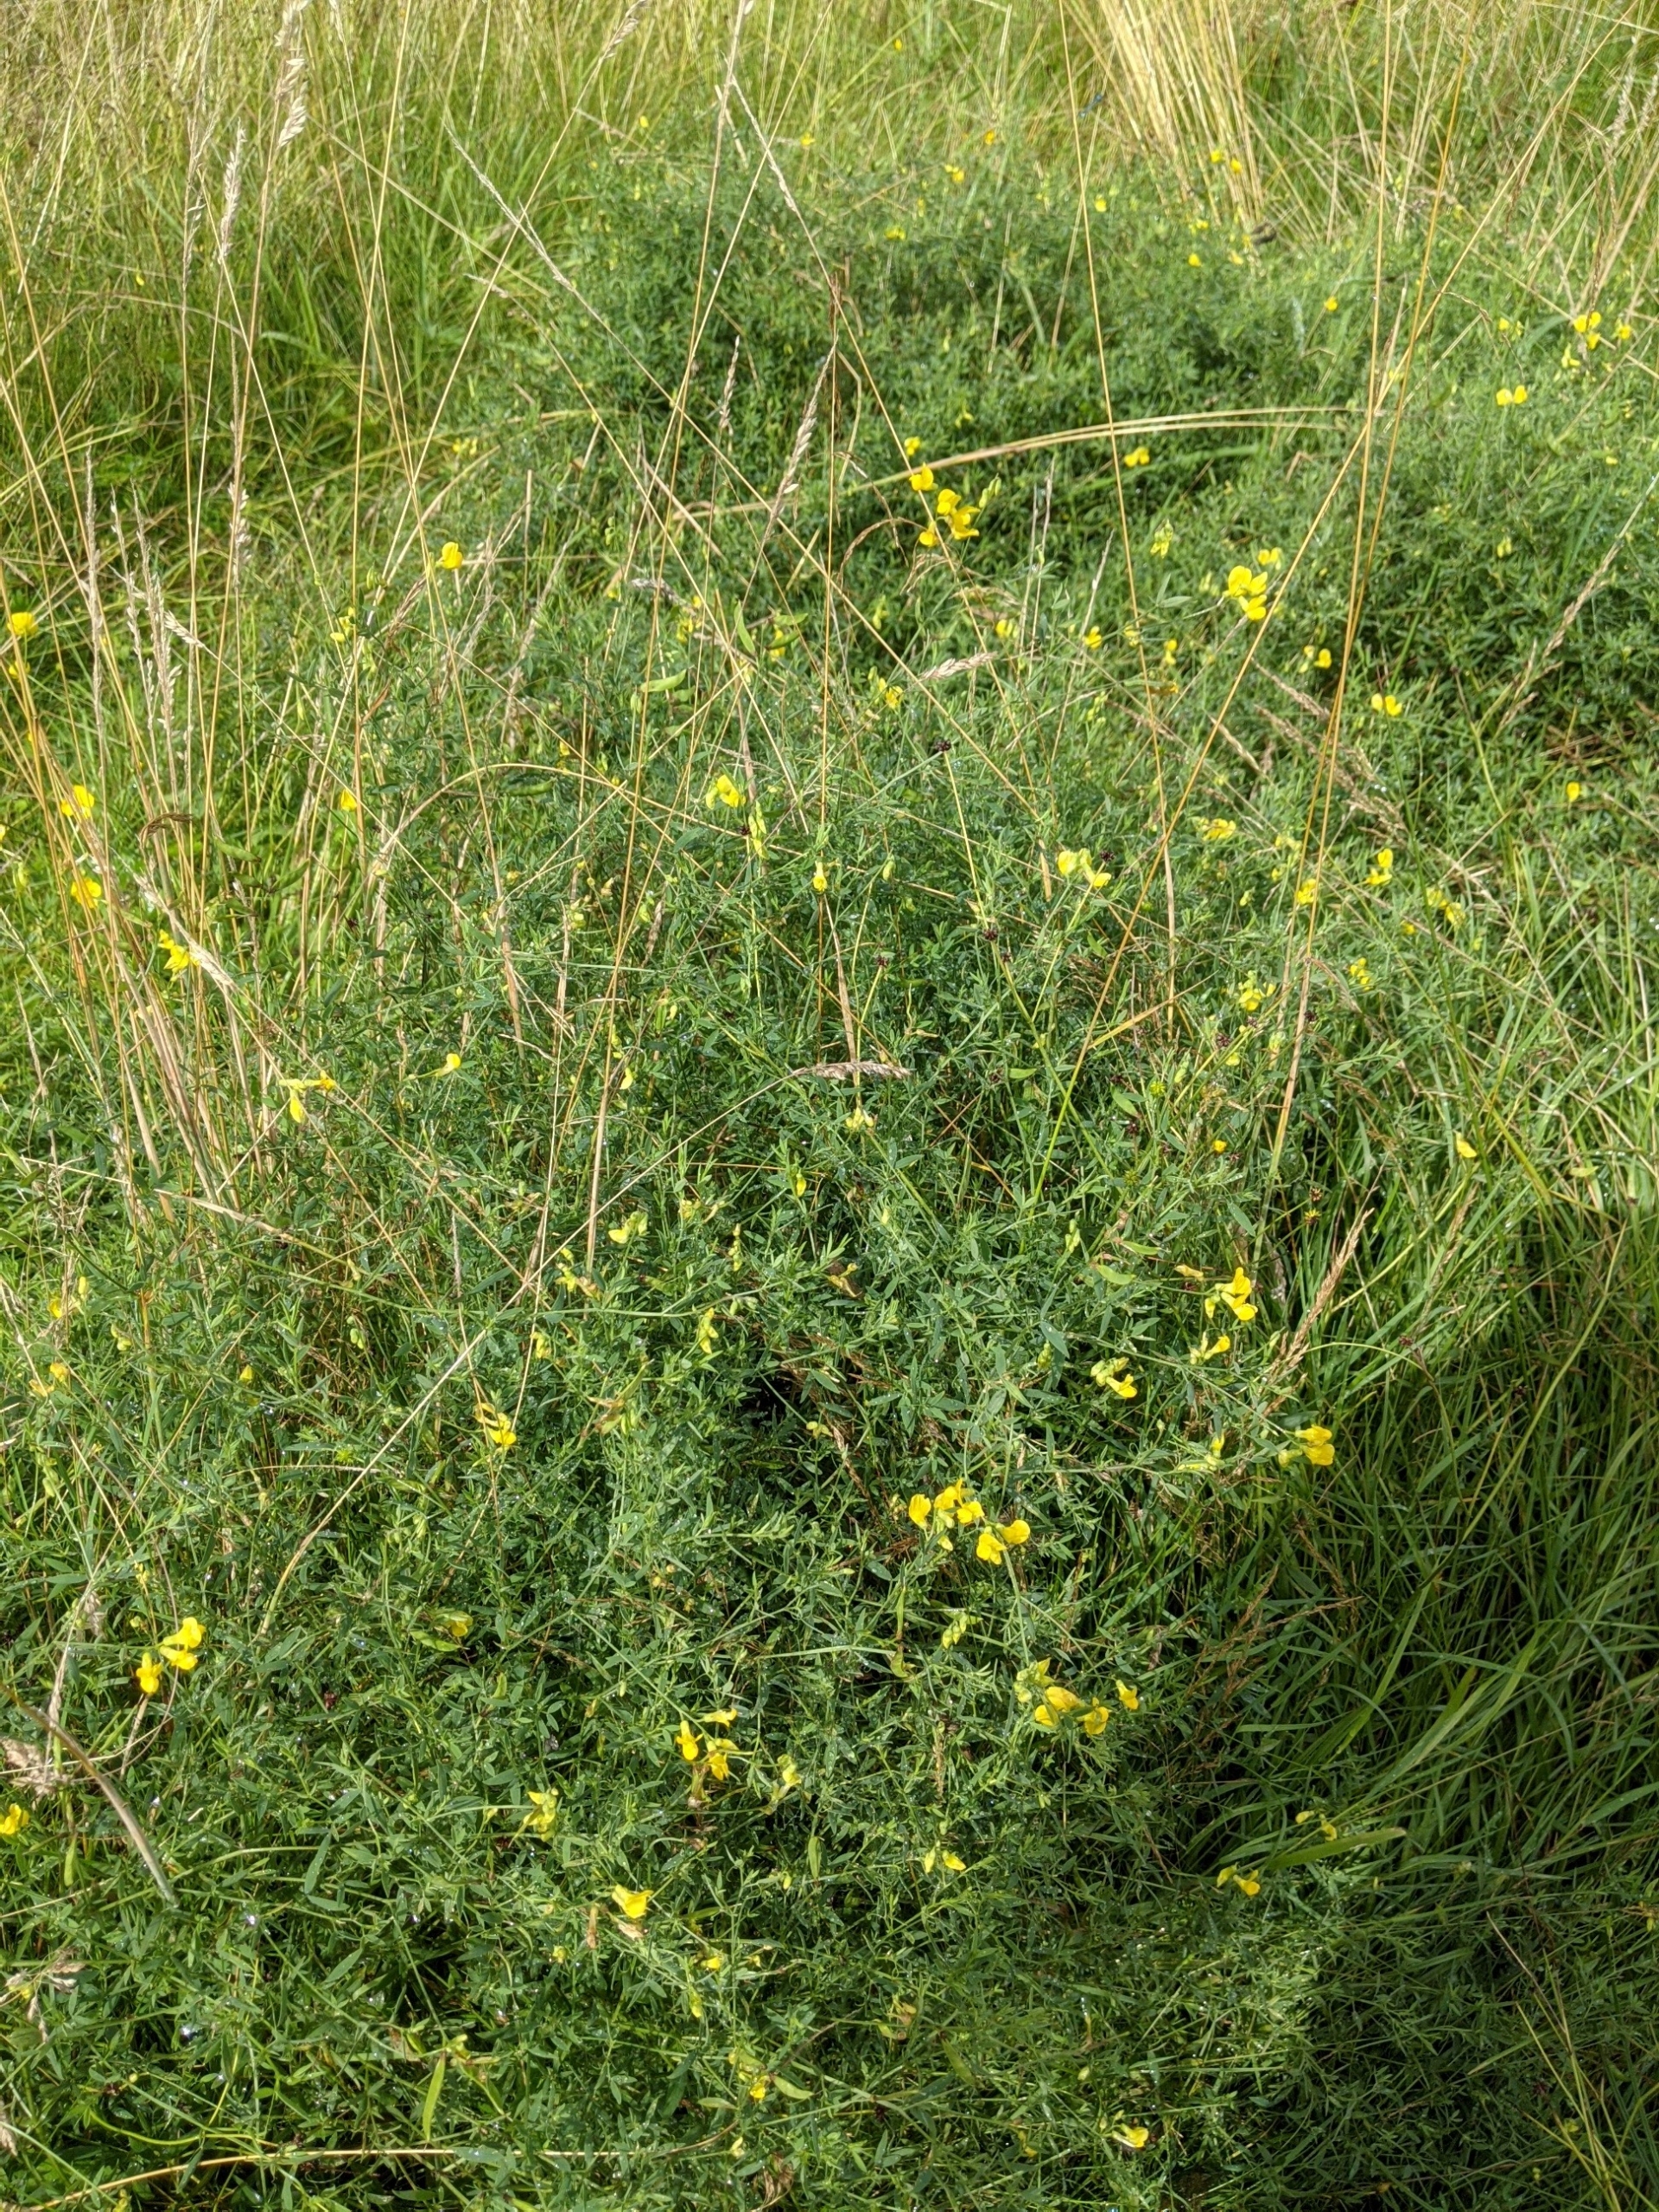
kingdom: Plantae
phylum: Tracheophyta
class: Magnoliopsida
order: Fabales
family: Fabaceae
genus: Lathyrus
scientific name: Lathyrus pratensis
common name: Gul fladbælg
